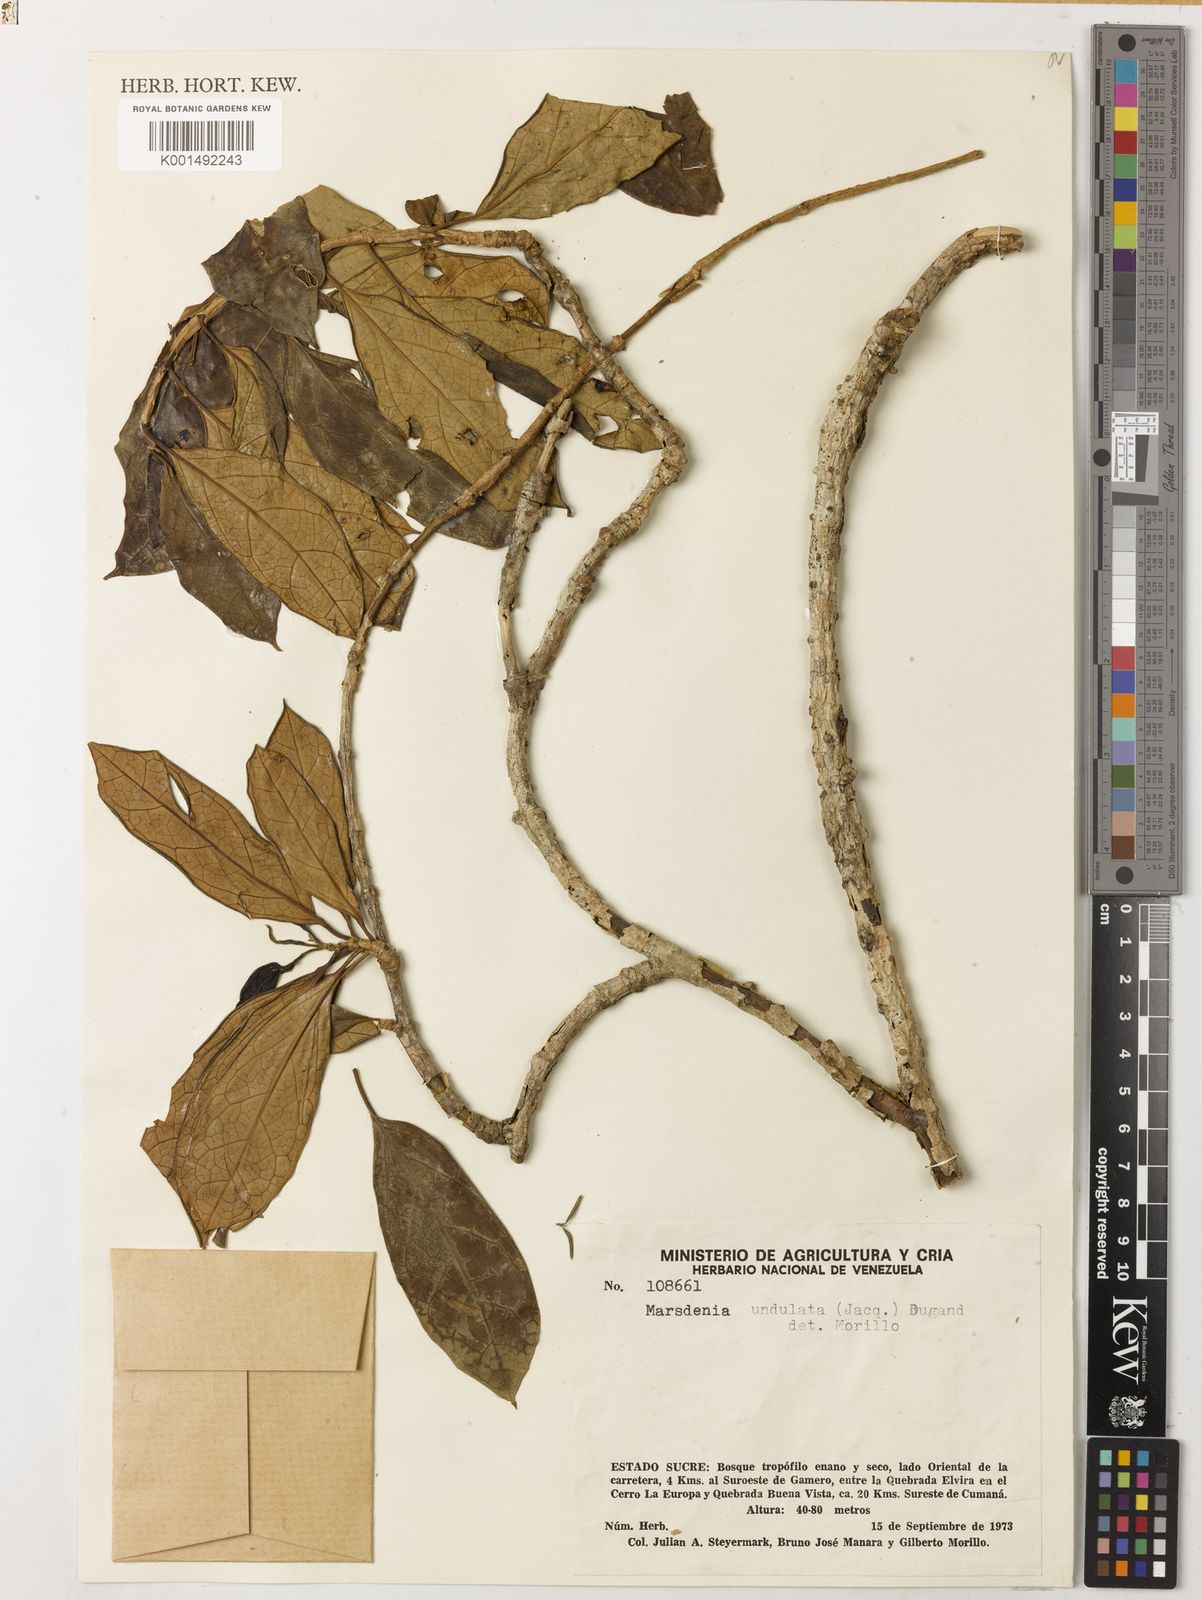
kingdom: Plantae
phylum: Tracheophyta
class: Magnoliopsida
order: Gentianales
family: Apocynaceae
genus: Ruehssia
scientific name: Ruehssia undulata
